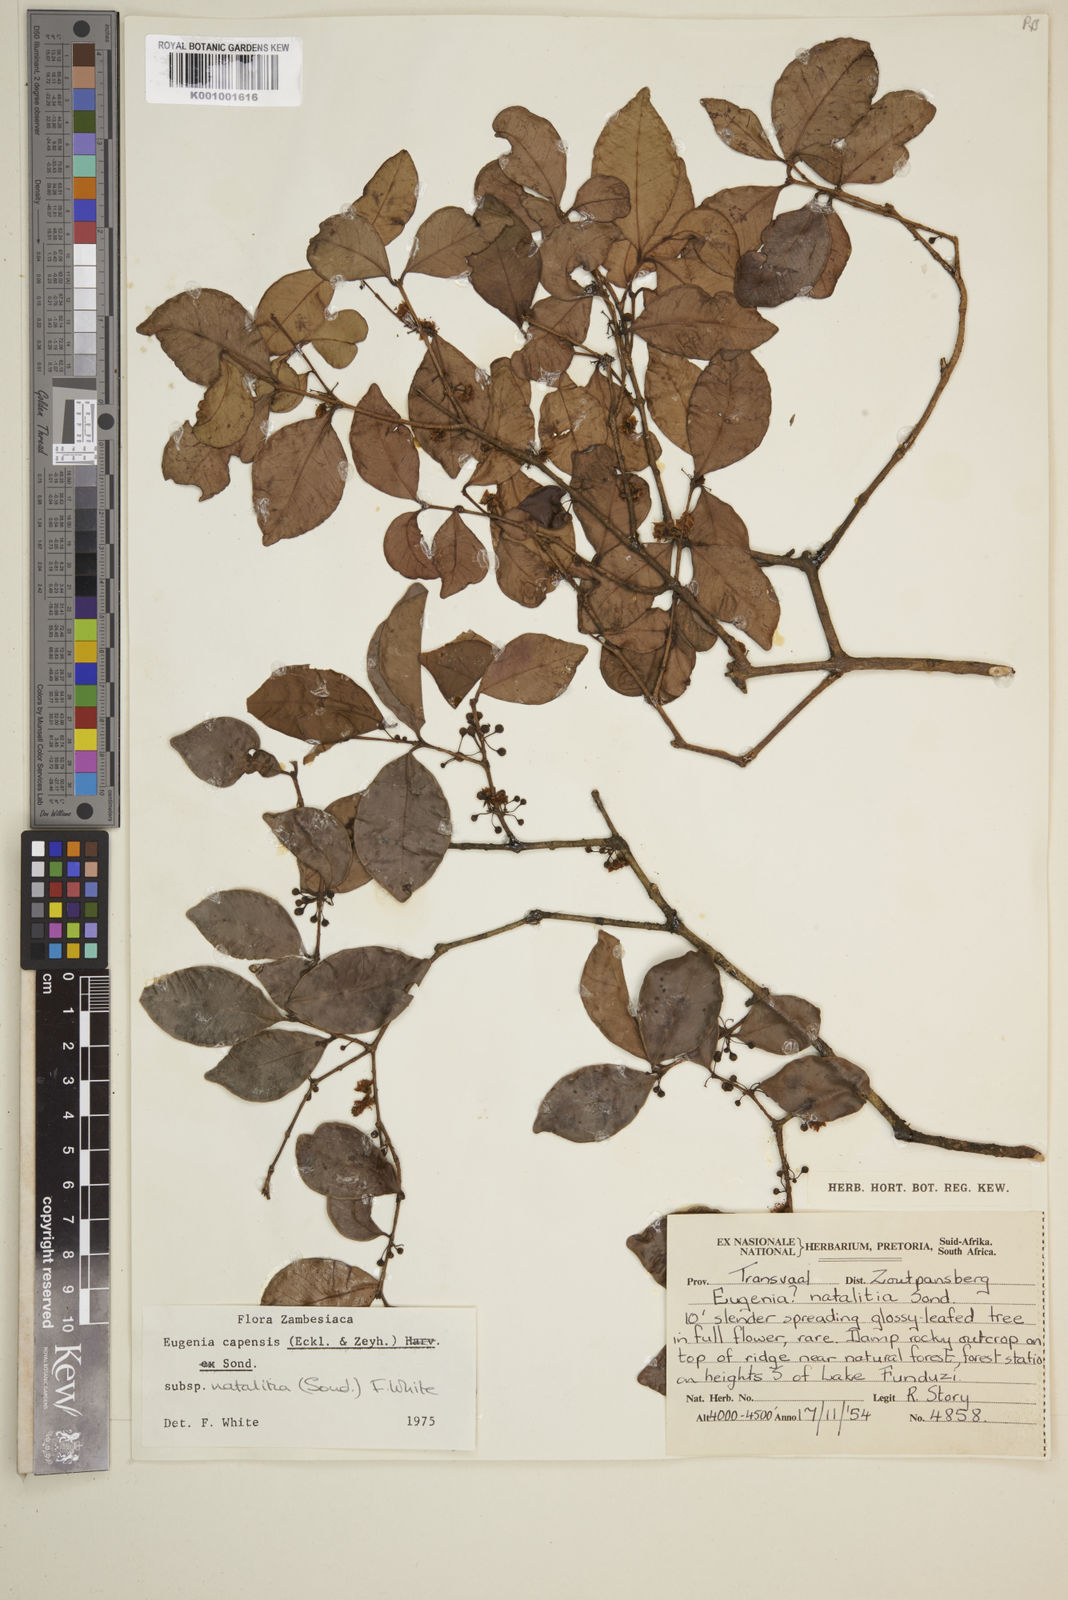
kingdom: Plantae
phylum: Tracheophyta
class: Magnoliopsida
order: Myrtales
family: Myrtaceae
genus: Eugenia
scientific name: Eugenia natalitia
